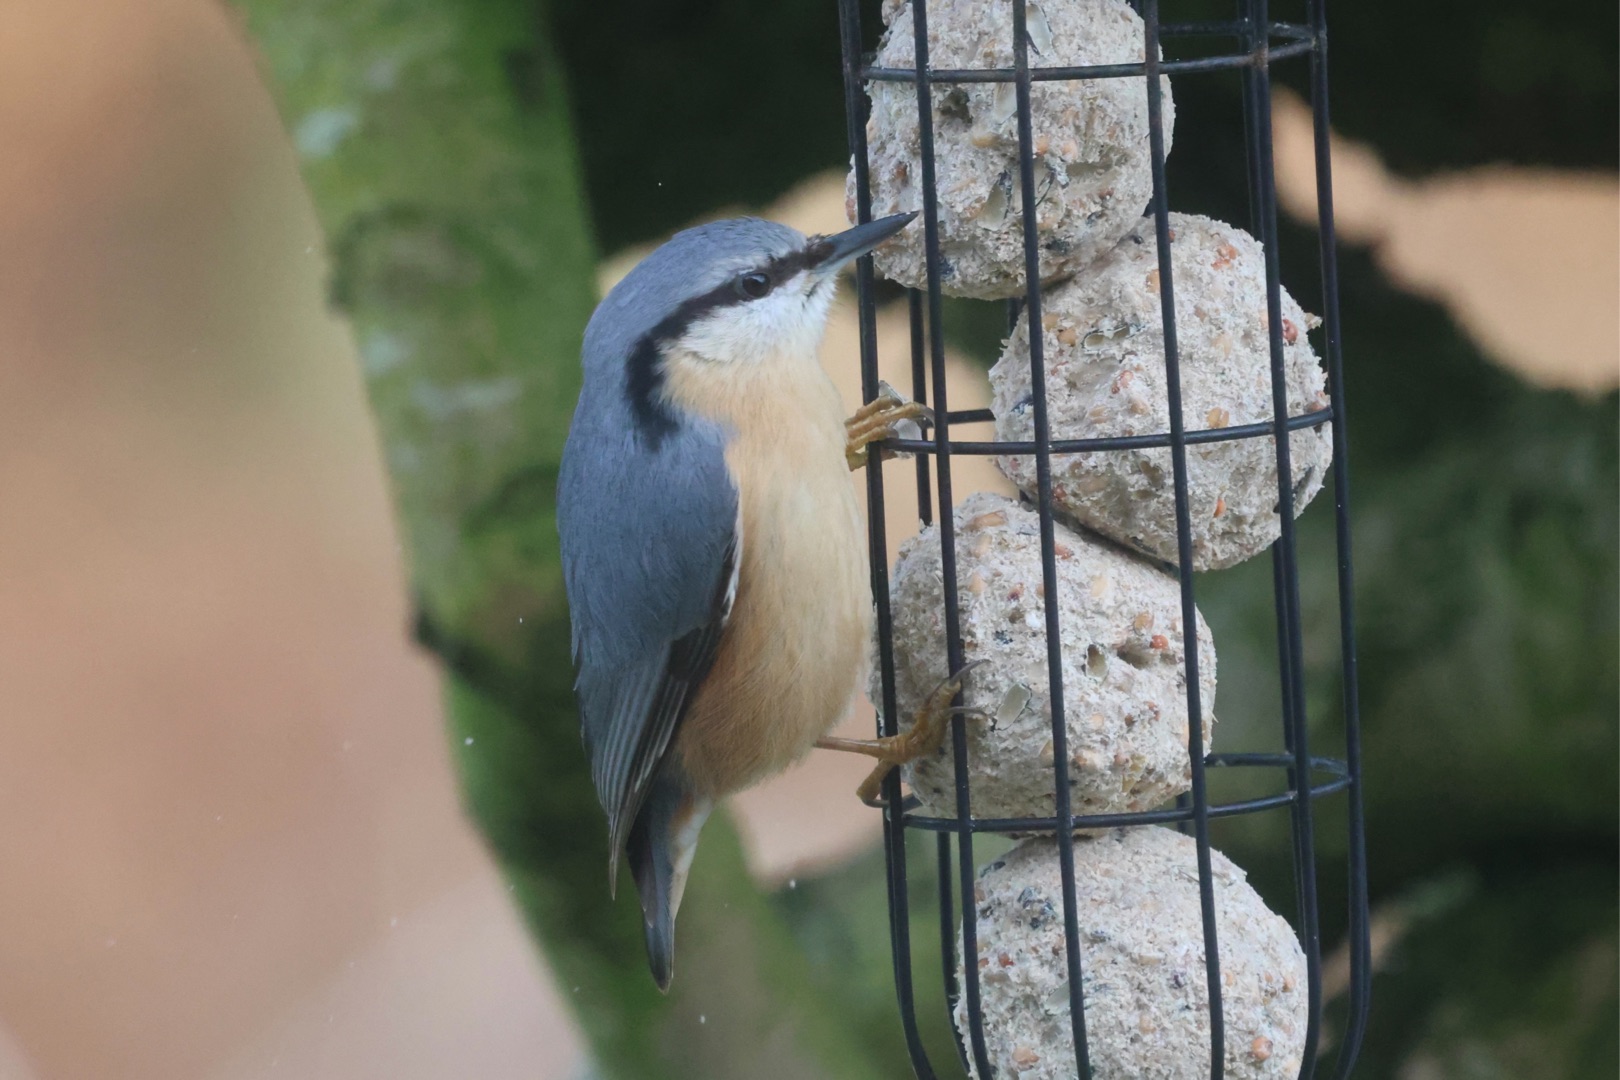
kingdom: Animalia
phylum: Chordata
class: Aves
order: Passeriformes
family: Sittidae
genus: Sitta
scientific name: Sitta europaea
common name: Spætmejse
